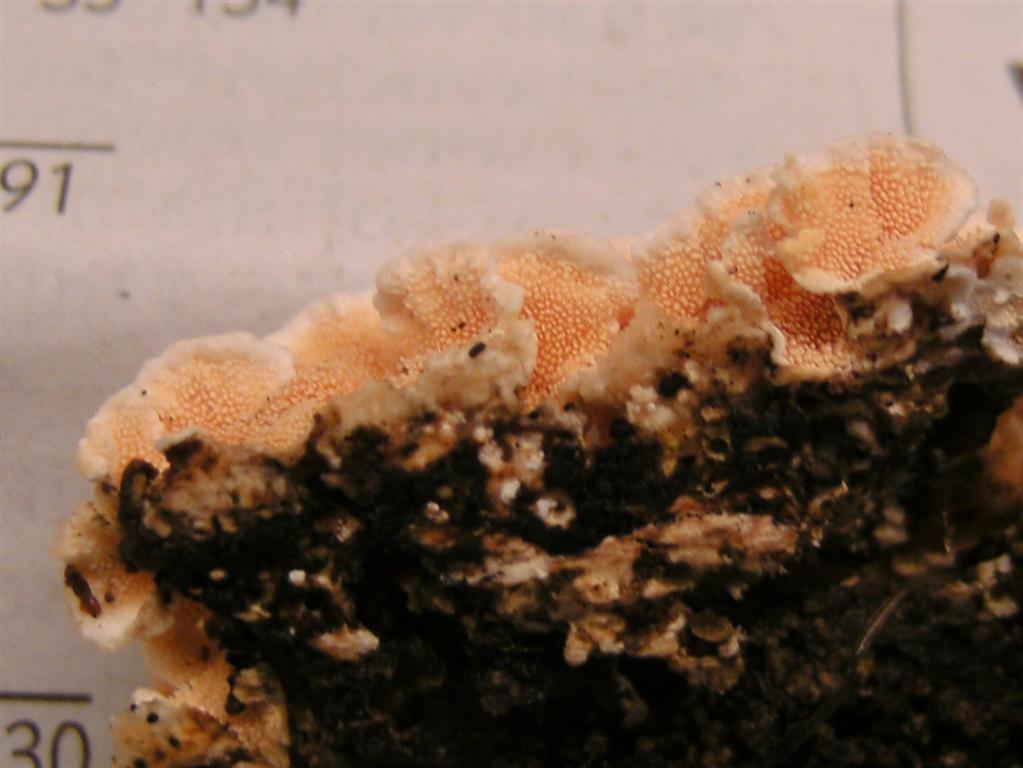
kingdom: Fungi
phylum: Basidiomycota
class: Agaricomycetes
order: Polyporales
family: Steccherinaceae
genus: Steccherinum
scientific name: Steccherinum ochraceum
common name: almindelig skønpig
